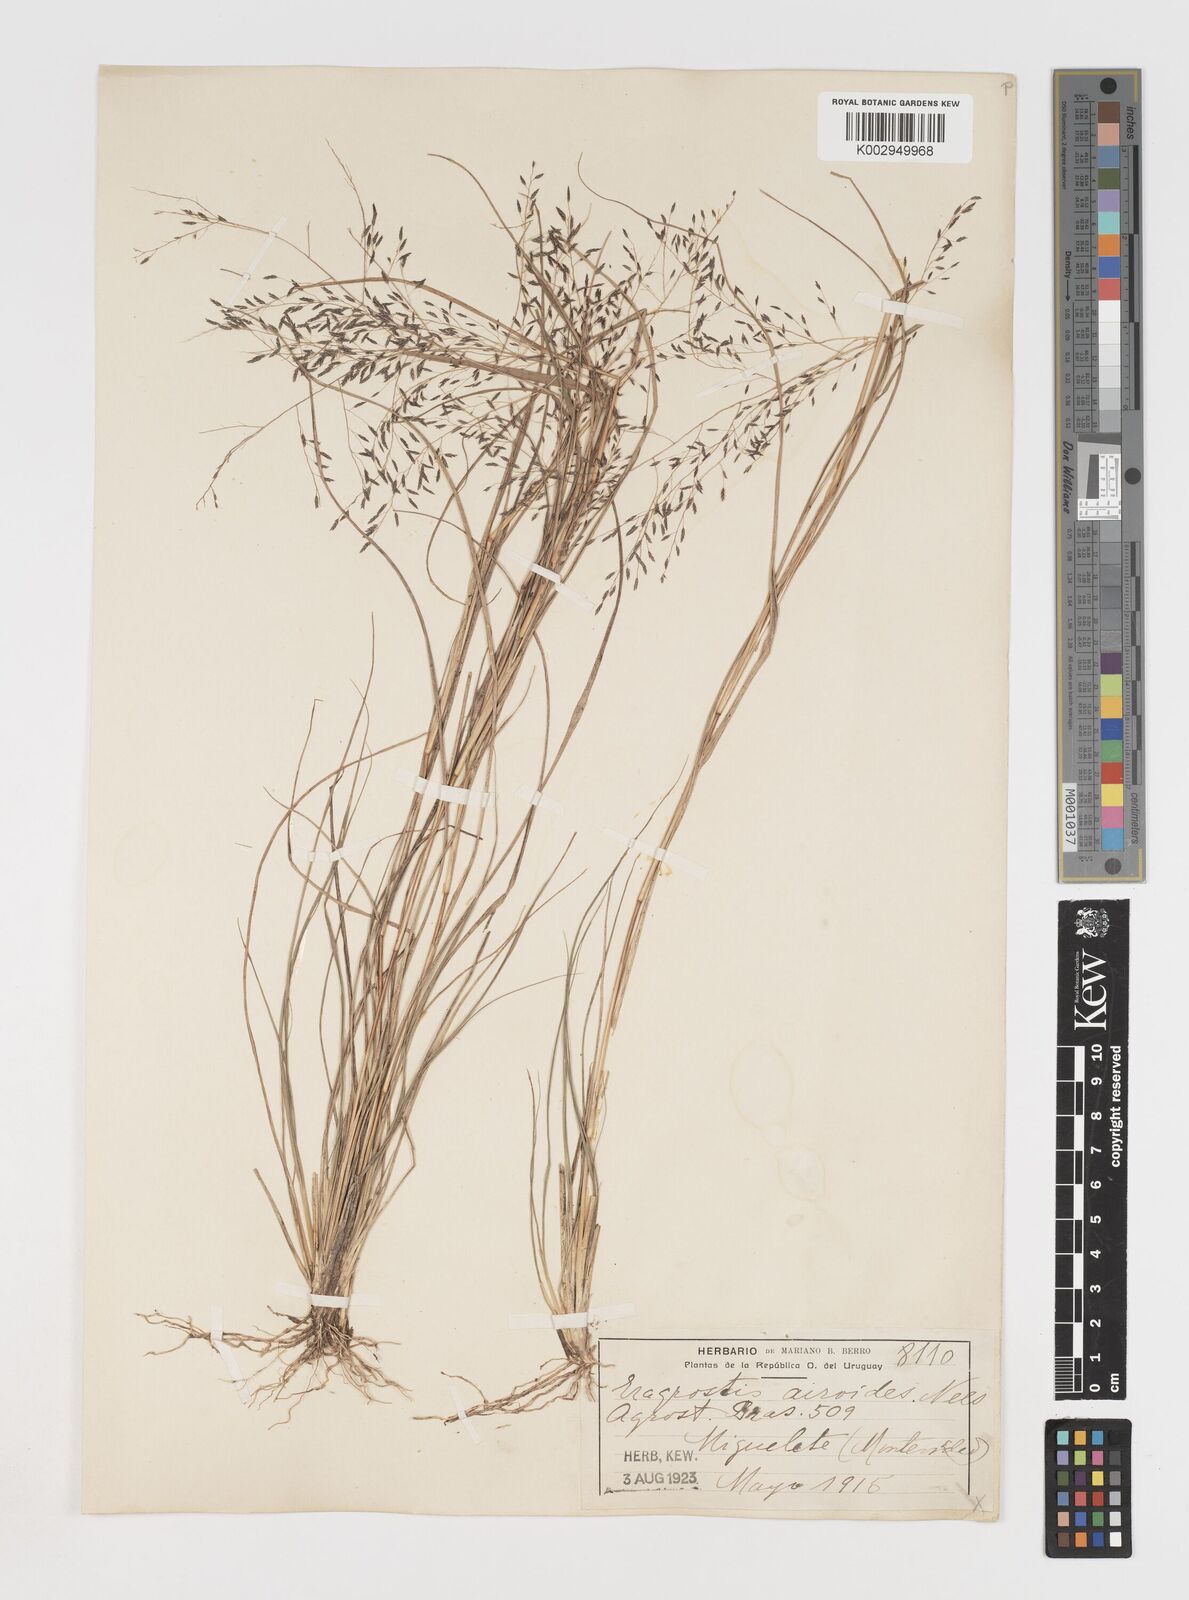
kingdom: Plantae
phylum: Tracheophyta
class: Liliopsida
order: Poales
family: Poaceae
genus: Eragrostis
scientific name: Eragrostis
